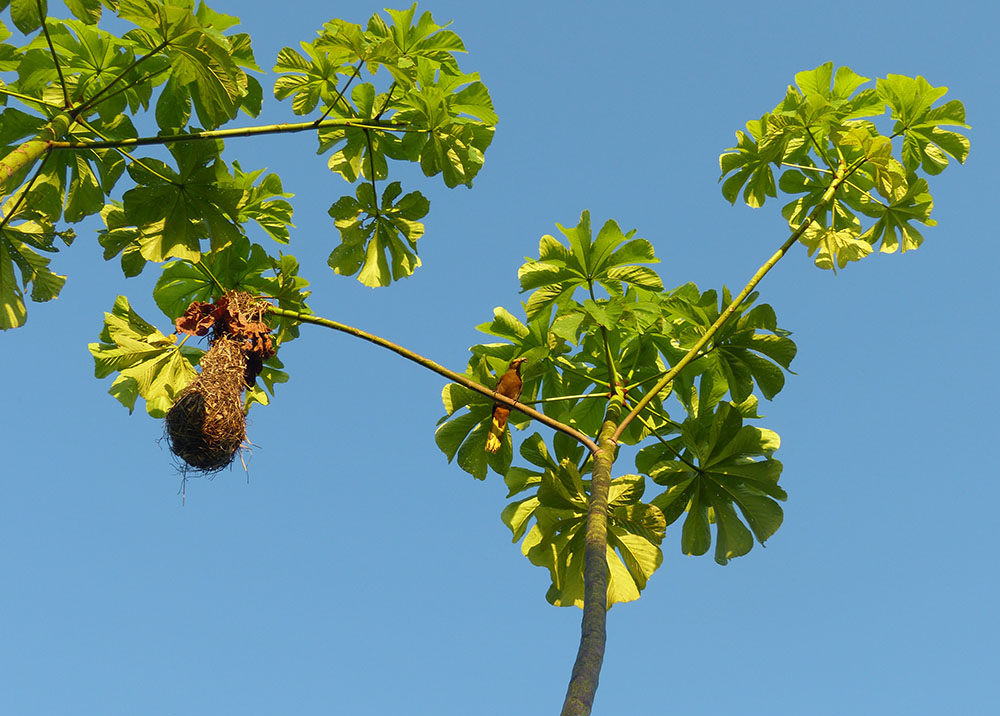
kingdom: Animalia
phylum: Chordata
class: Aves
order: Passeriformes
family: Icteridae
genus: Psarocolius
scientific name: Psarocolius angustifrons
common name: Russet-backed oropendola
